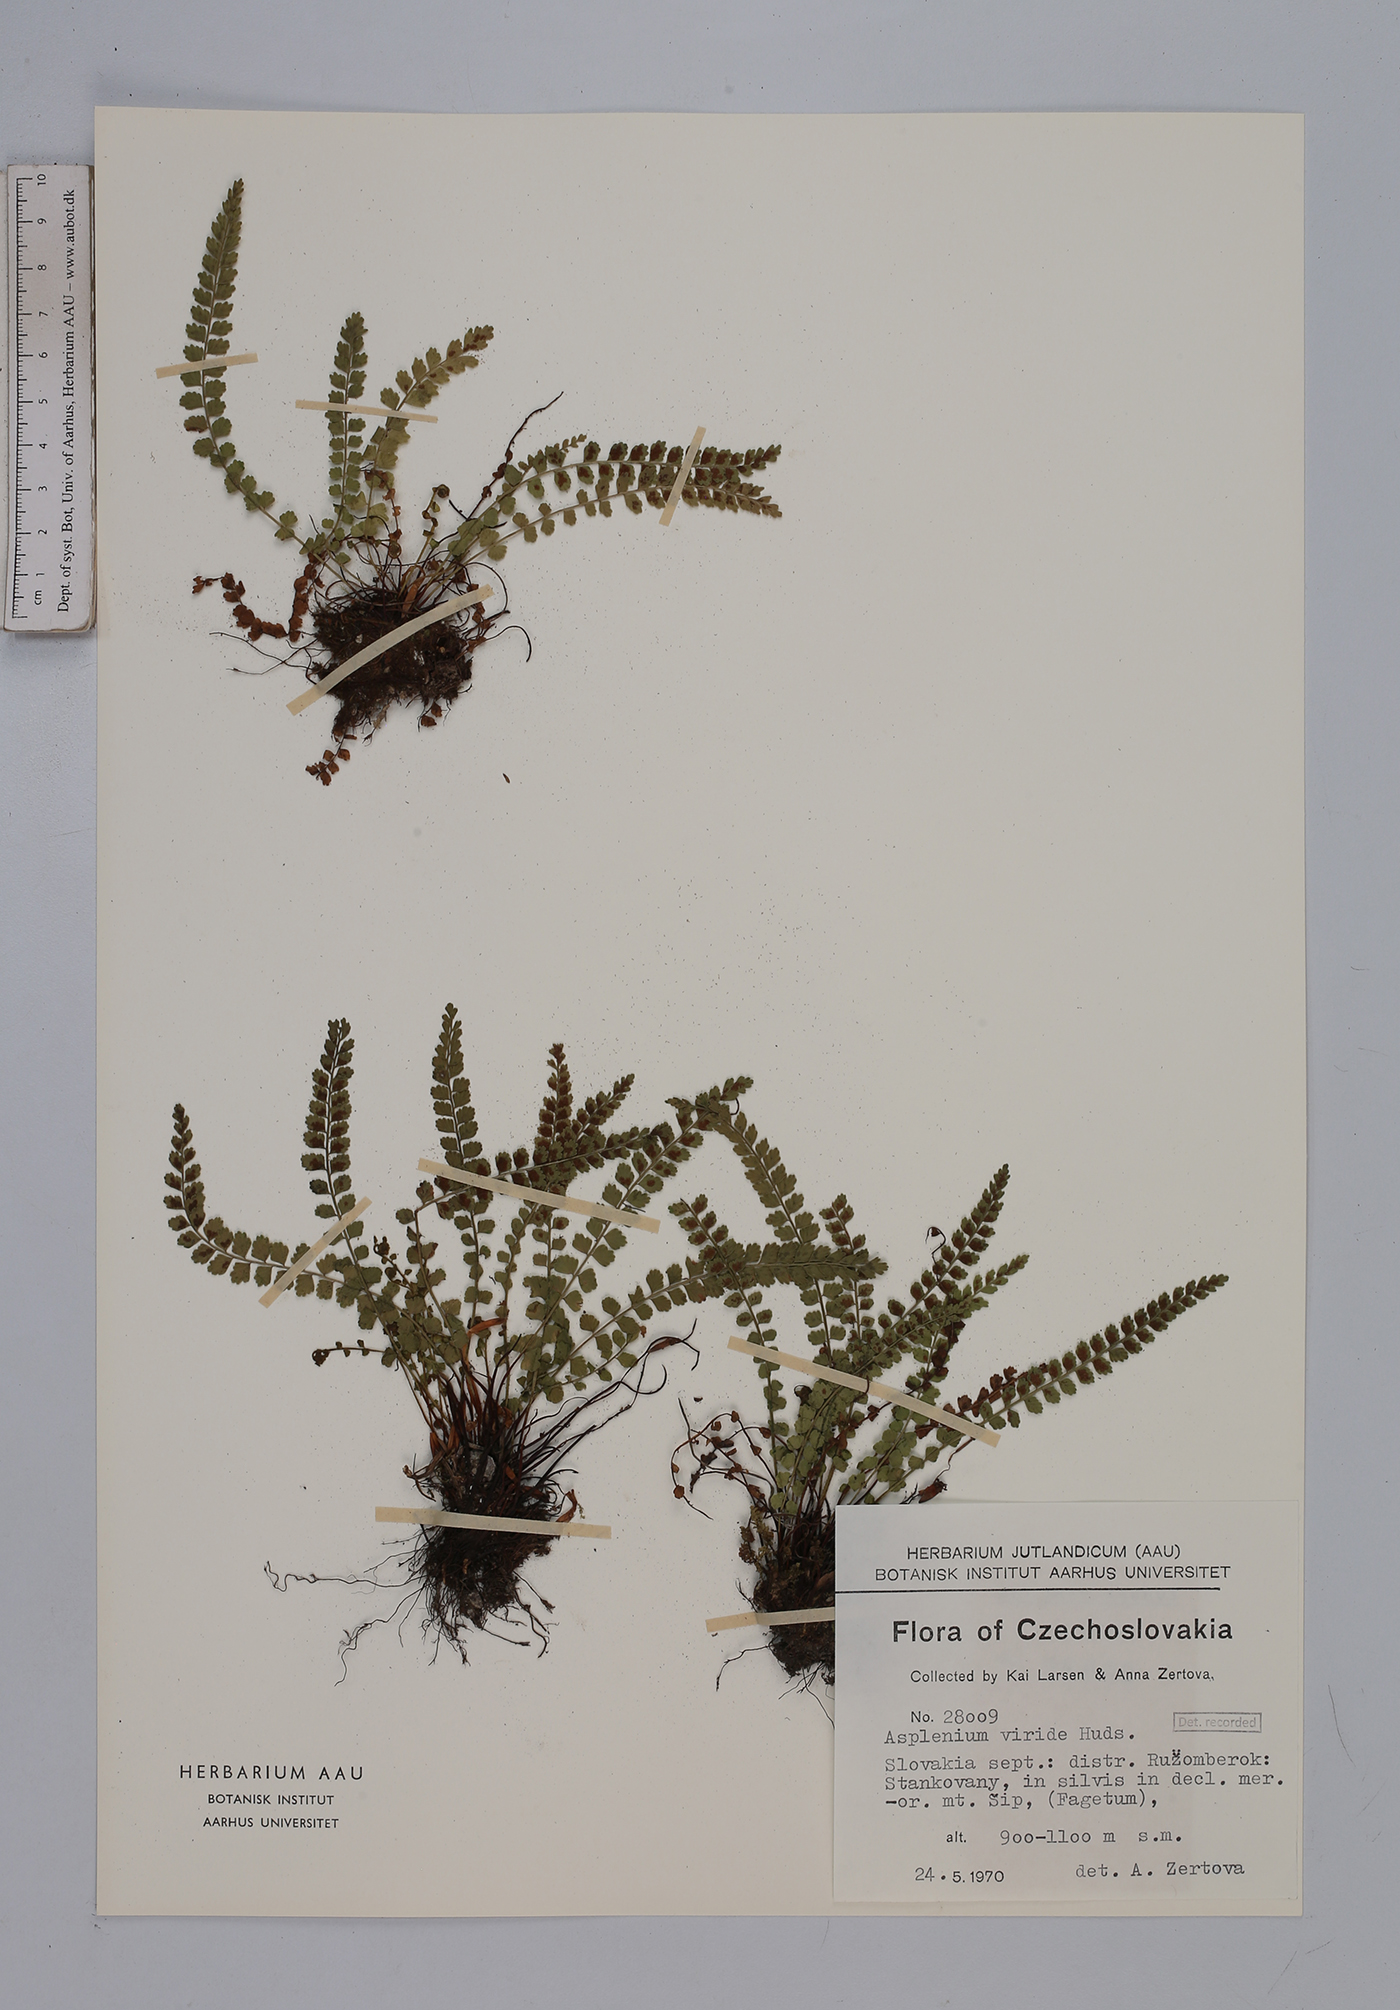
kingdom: Plantae
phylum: Tracheophyta
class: Polypodiopsida
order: Polypodiales
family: Aspleniaceae
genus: Asplenium
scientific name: Asplenium viride
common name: Green spleenwort
